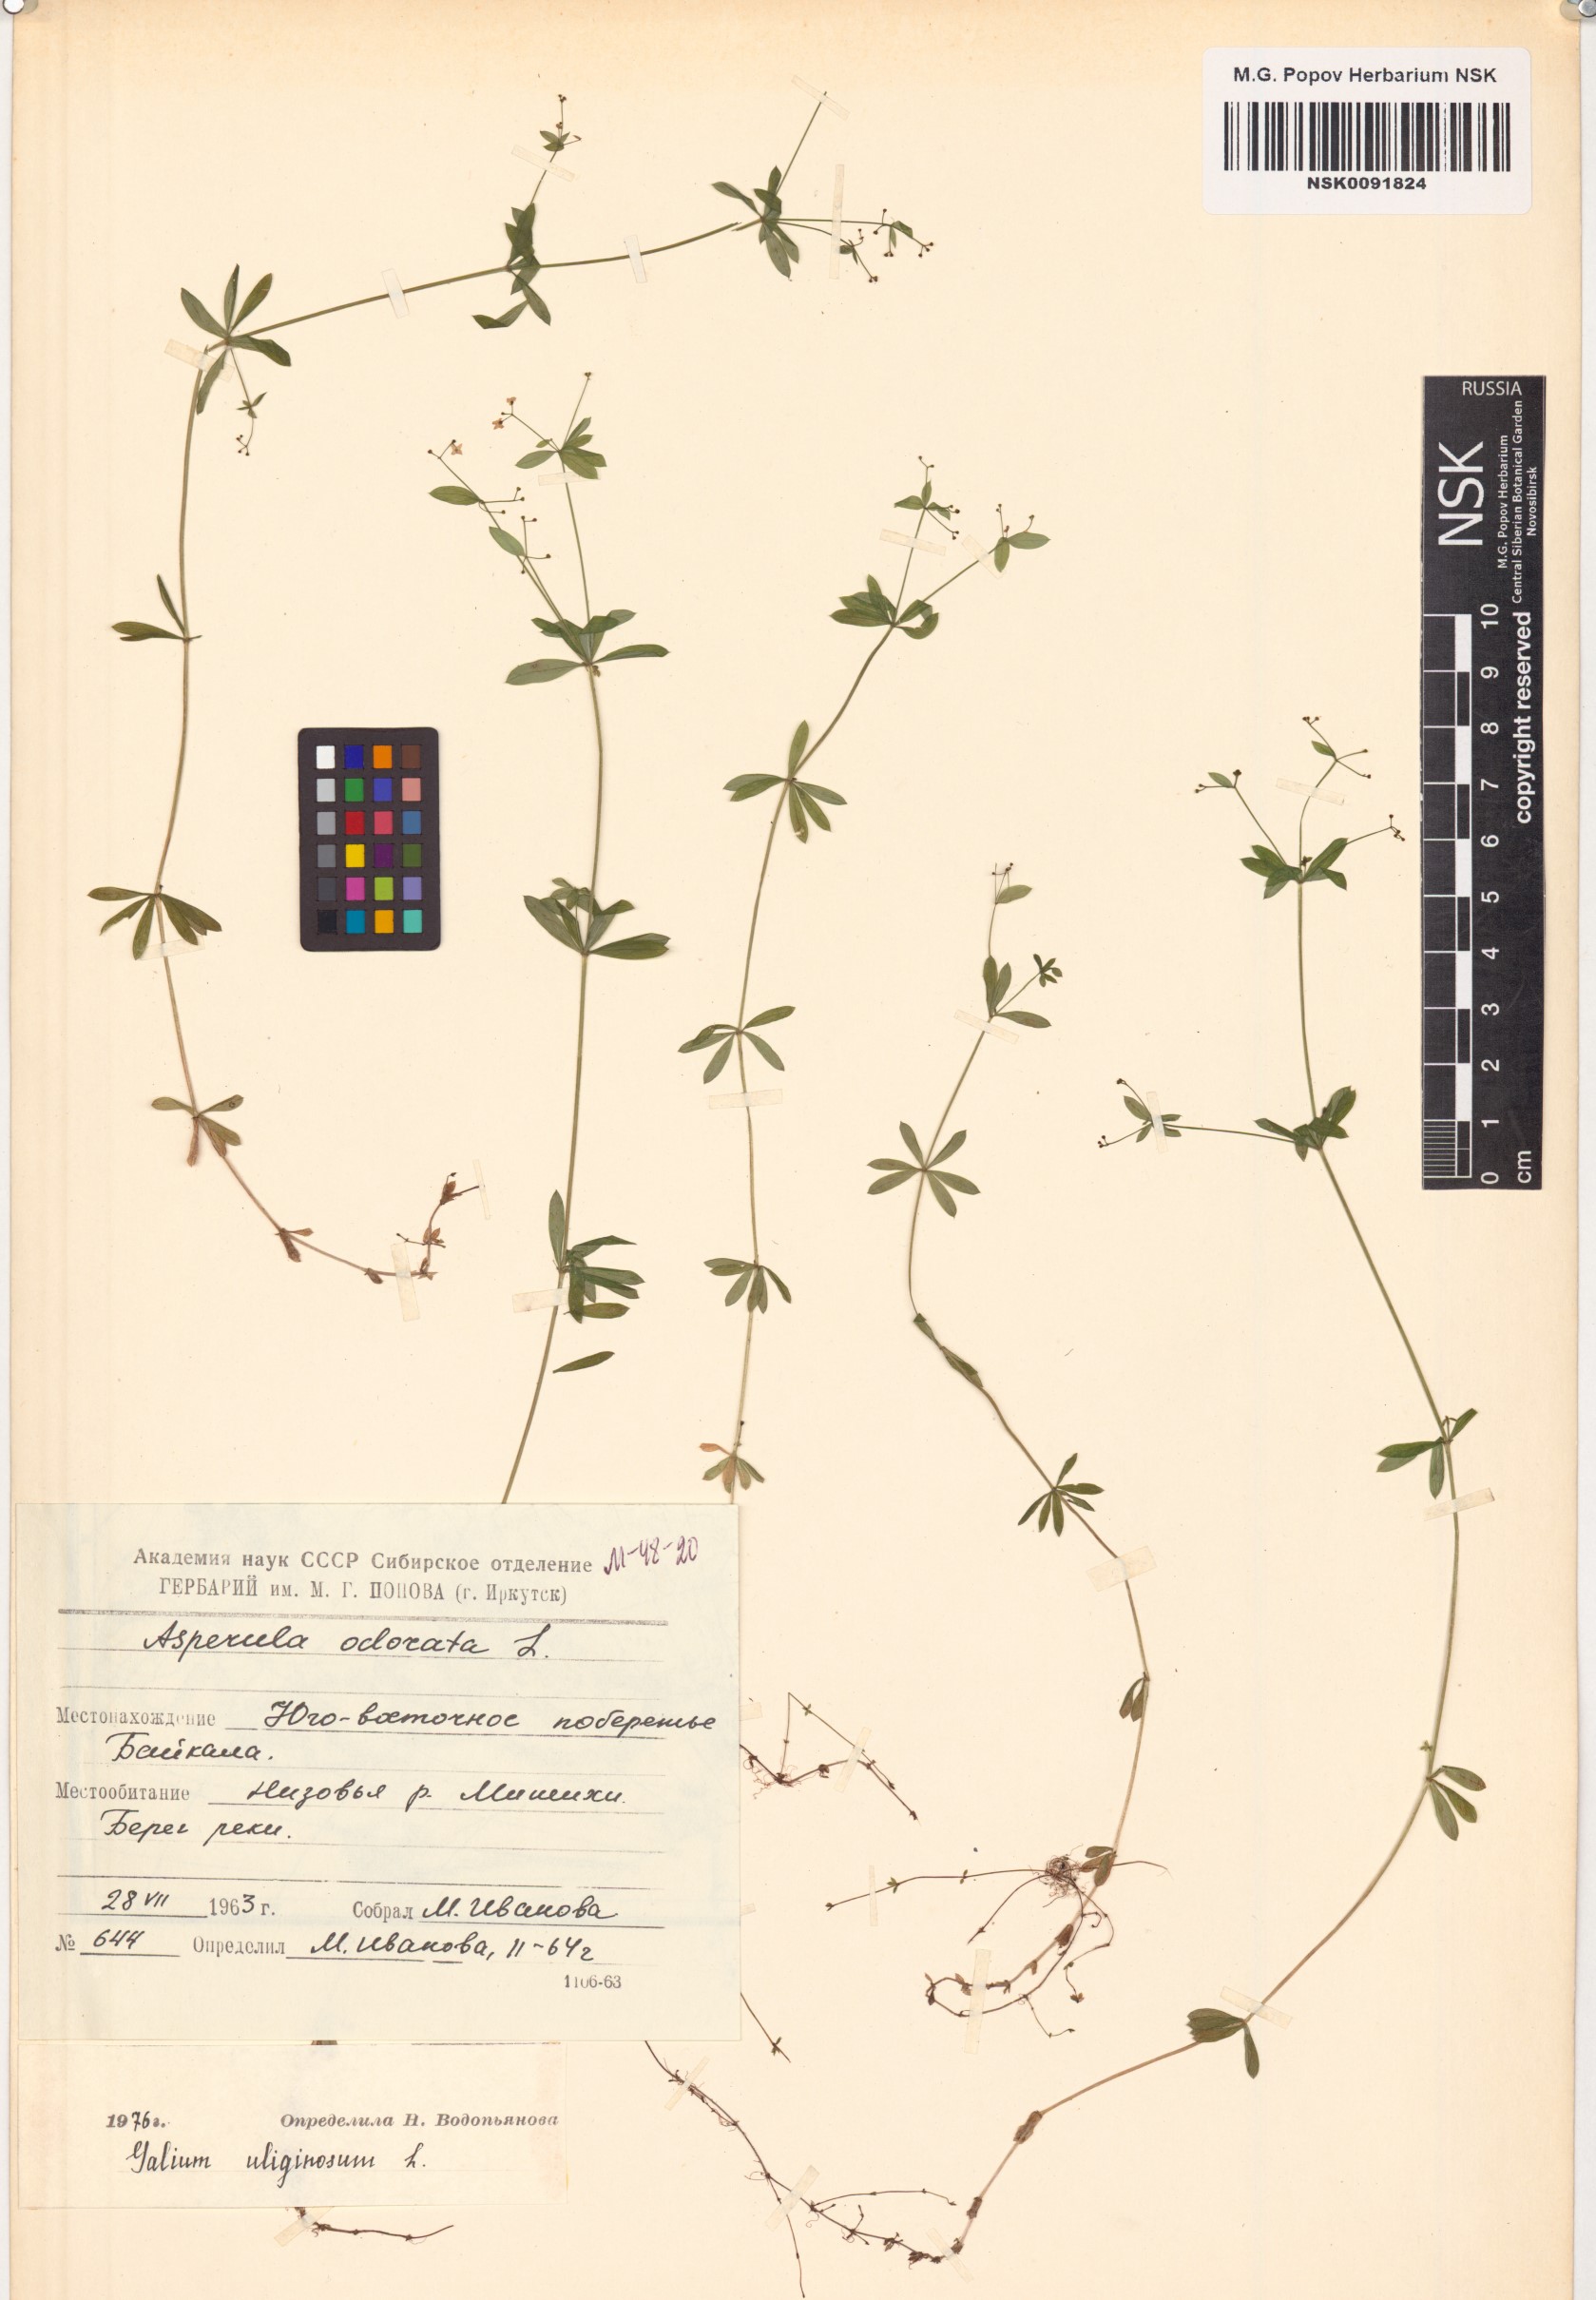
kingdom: Plantae
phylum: Tracheophyta
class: Magnoliopsida
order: Gentianales
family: Rubiaceae
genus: Galium
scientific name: Galium uliginosum
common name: Fen bedstraw
